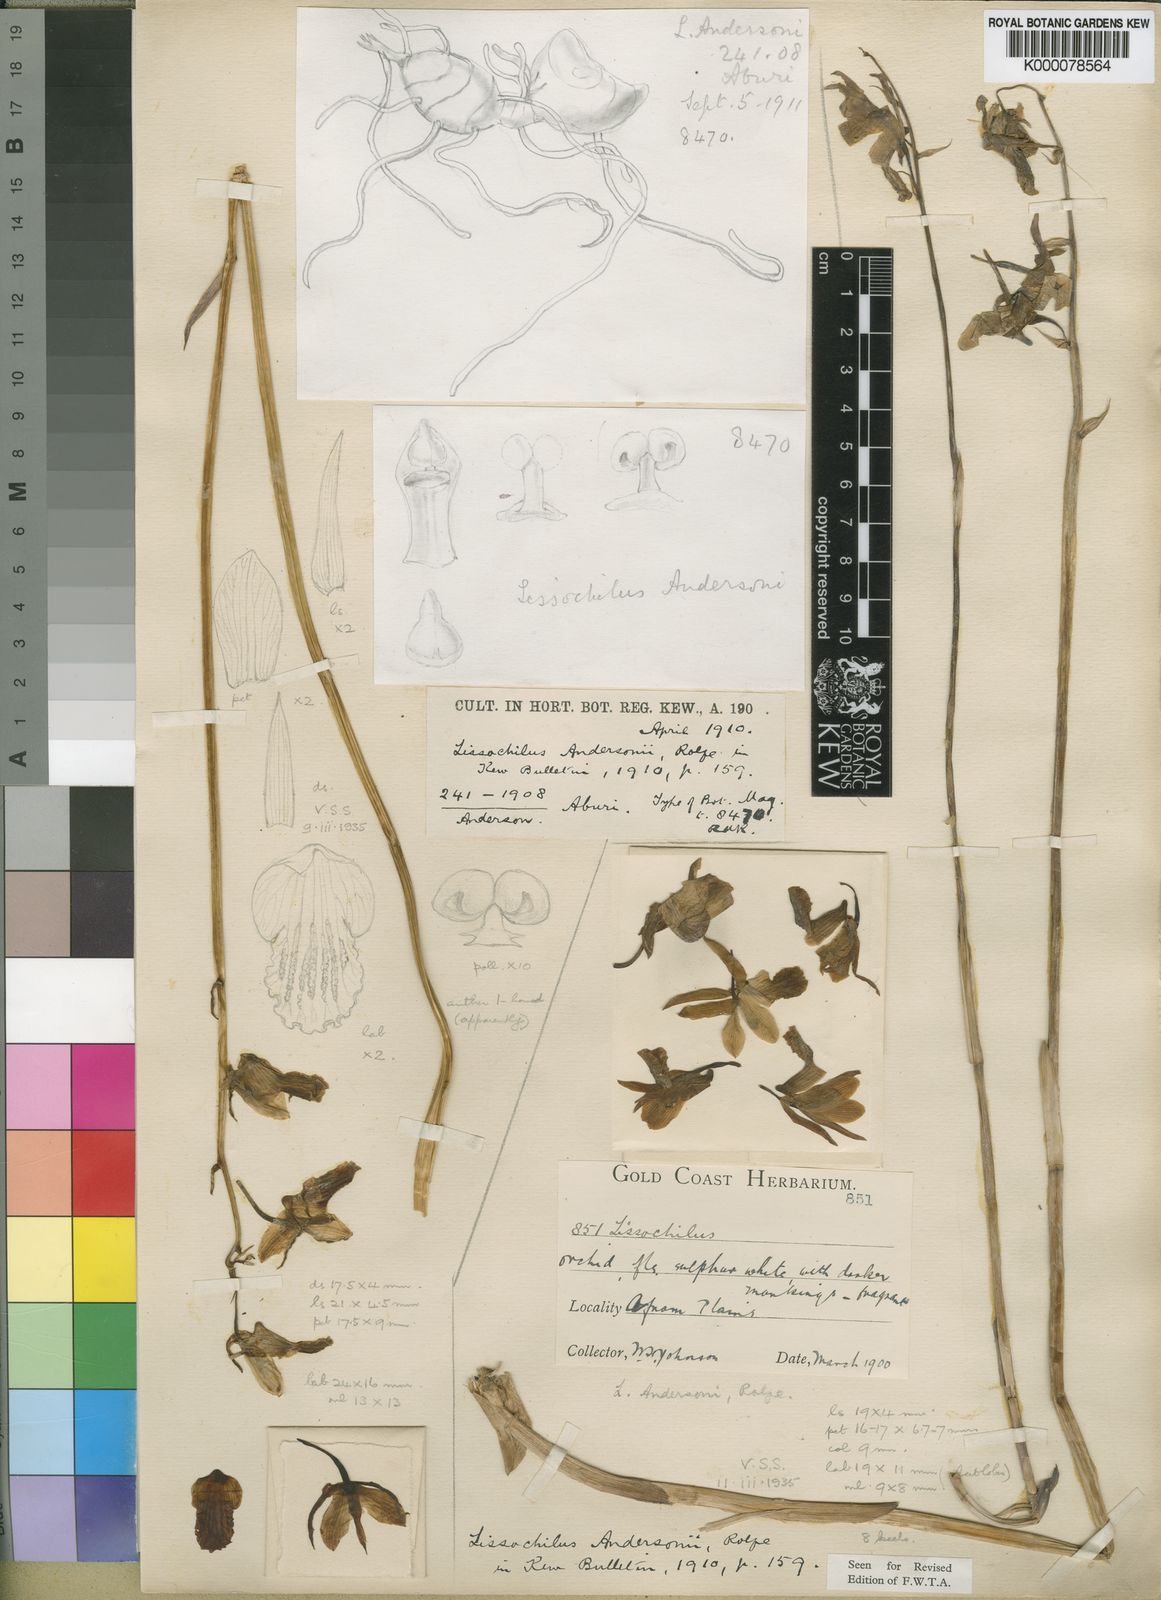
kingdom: Plantae
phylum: Tracheophyta
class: Liliopsida
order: Asparagales
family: Orchidaceae
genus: Eulophia
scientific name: Eulophia flavopurpurea
